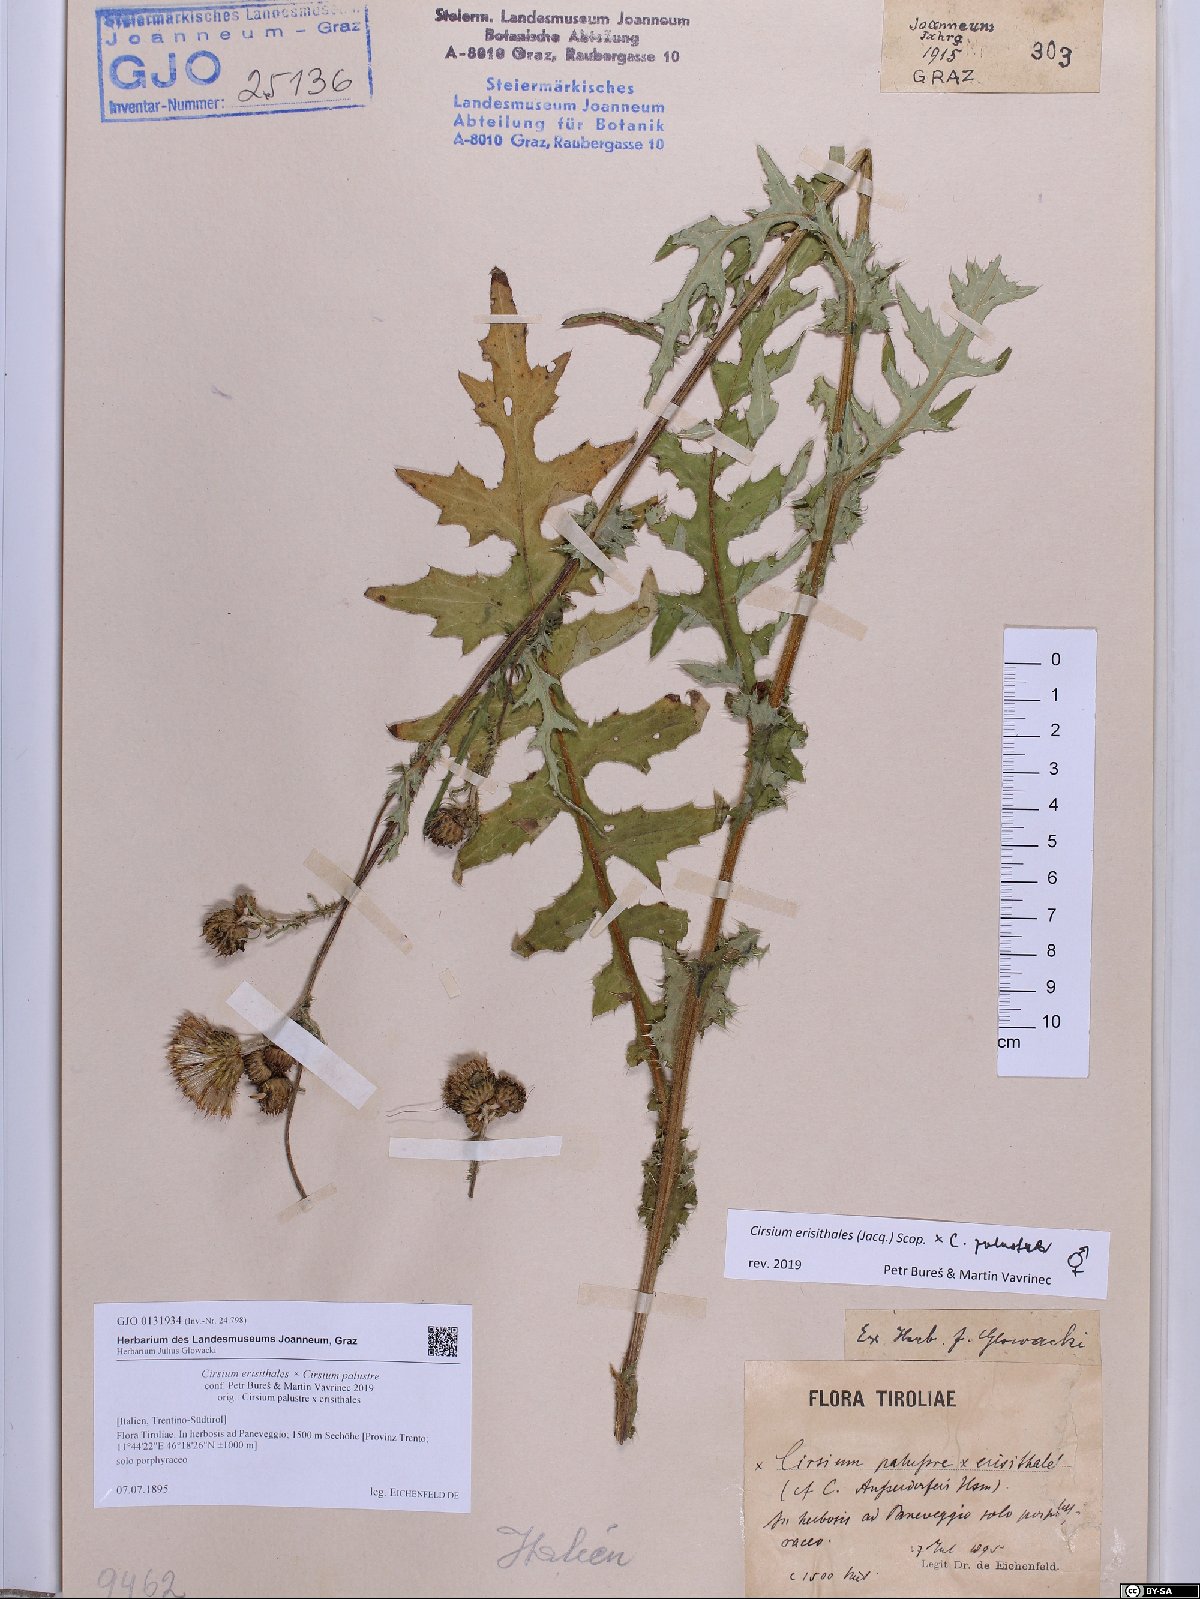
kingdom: Plantae
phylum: Tracheophyta
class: Magnoliopsida
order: Asterales
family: Asteraceae
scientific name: Asteraceae
